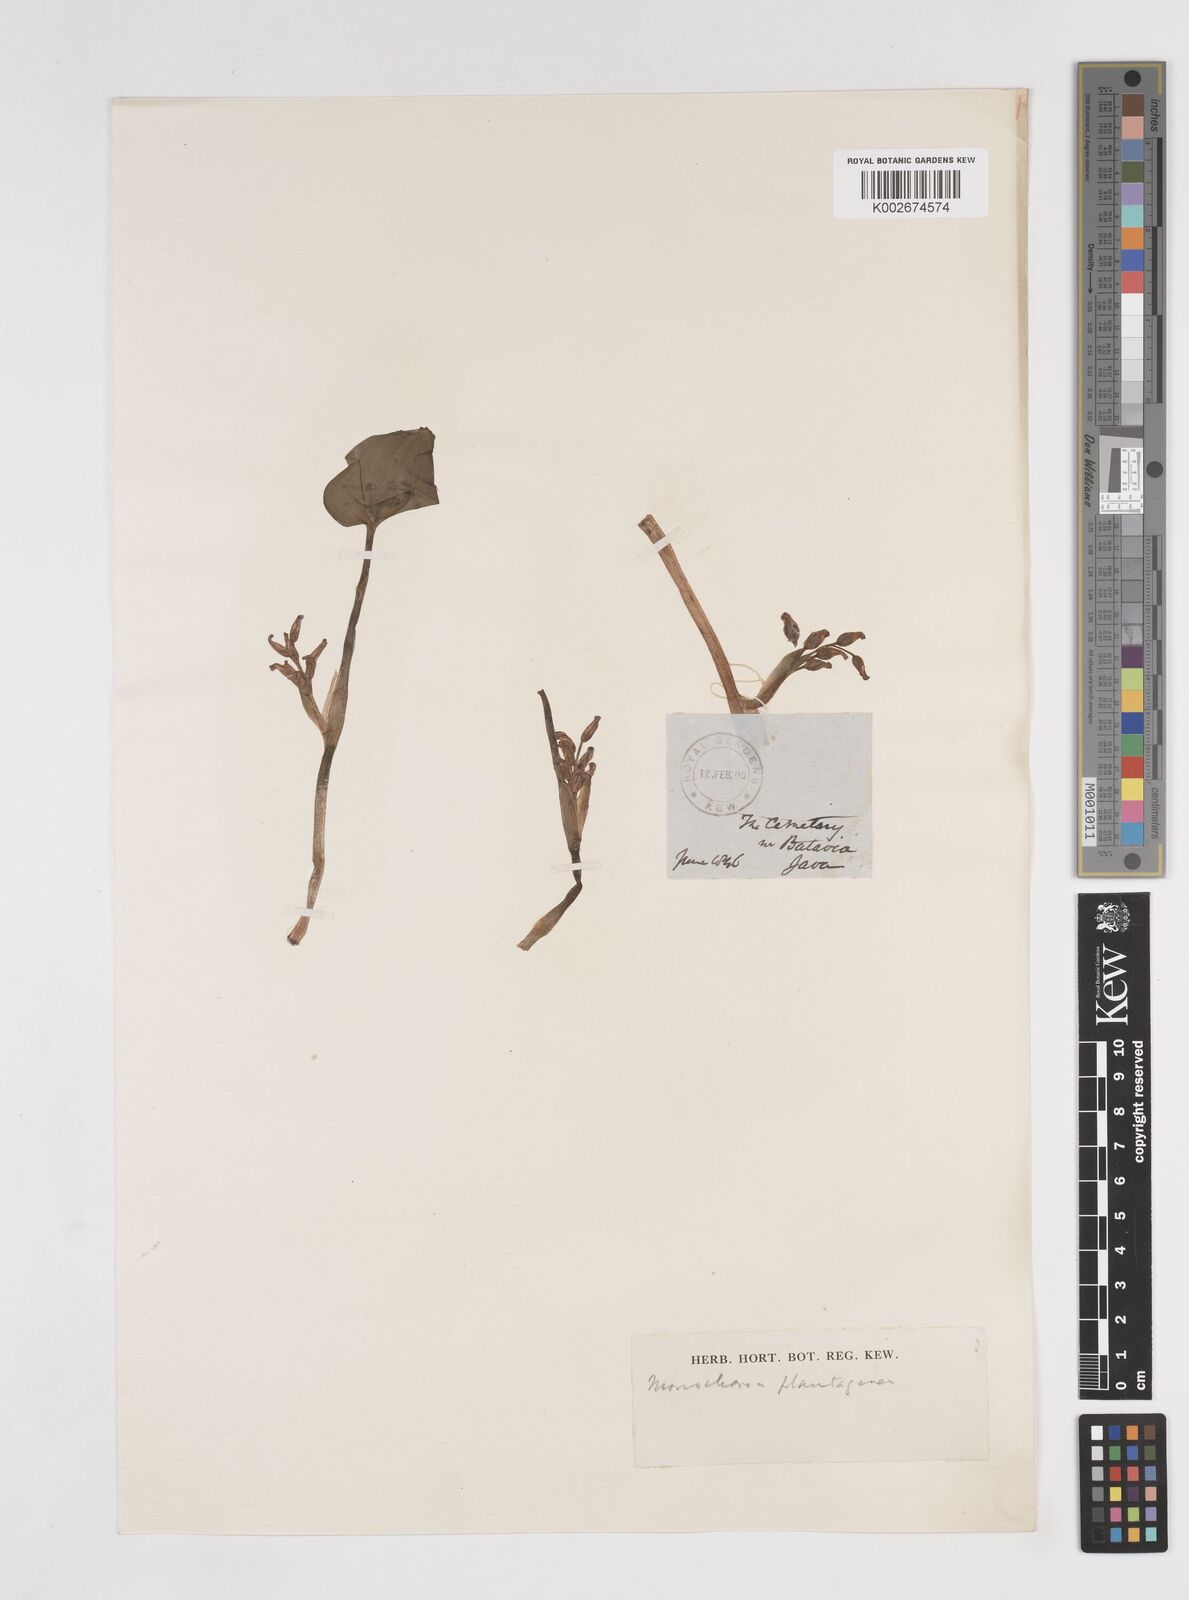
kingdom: Plantae
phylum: Tracheophyta
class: Liliopsida
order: Commelinales
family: Pontederiaceae
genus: Pontederia
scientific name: Pontederia vaginalis
